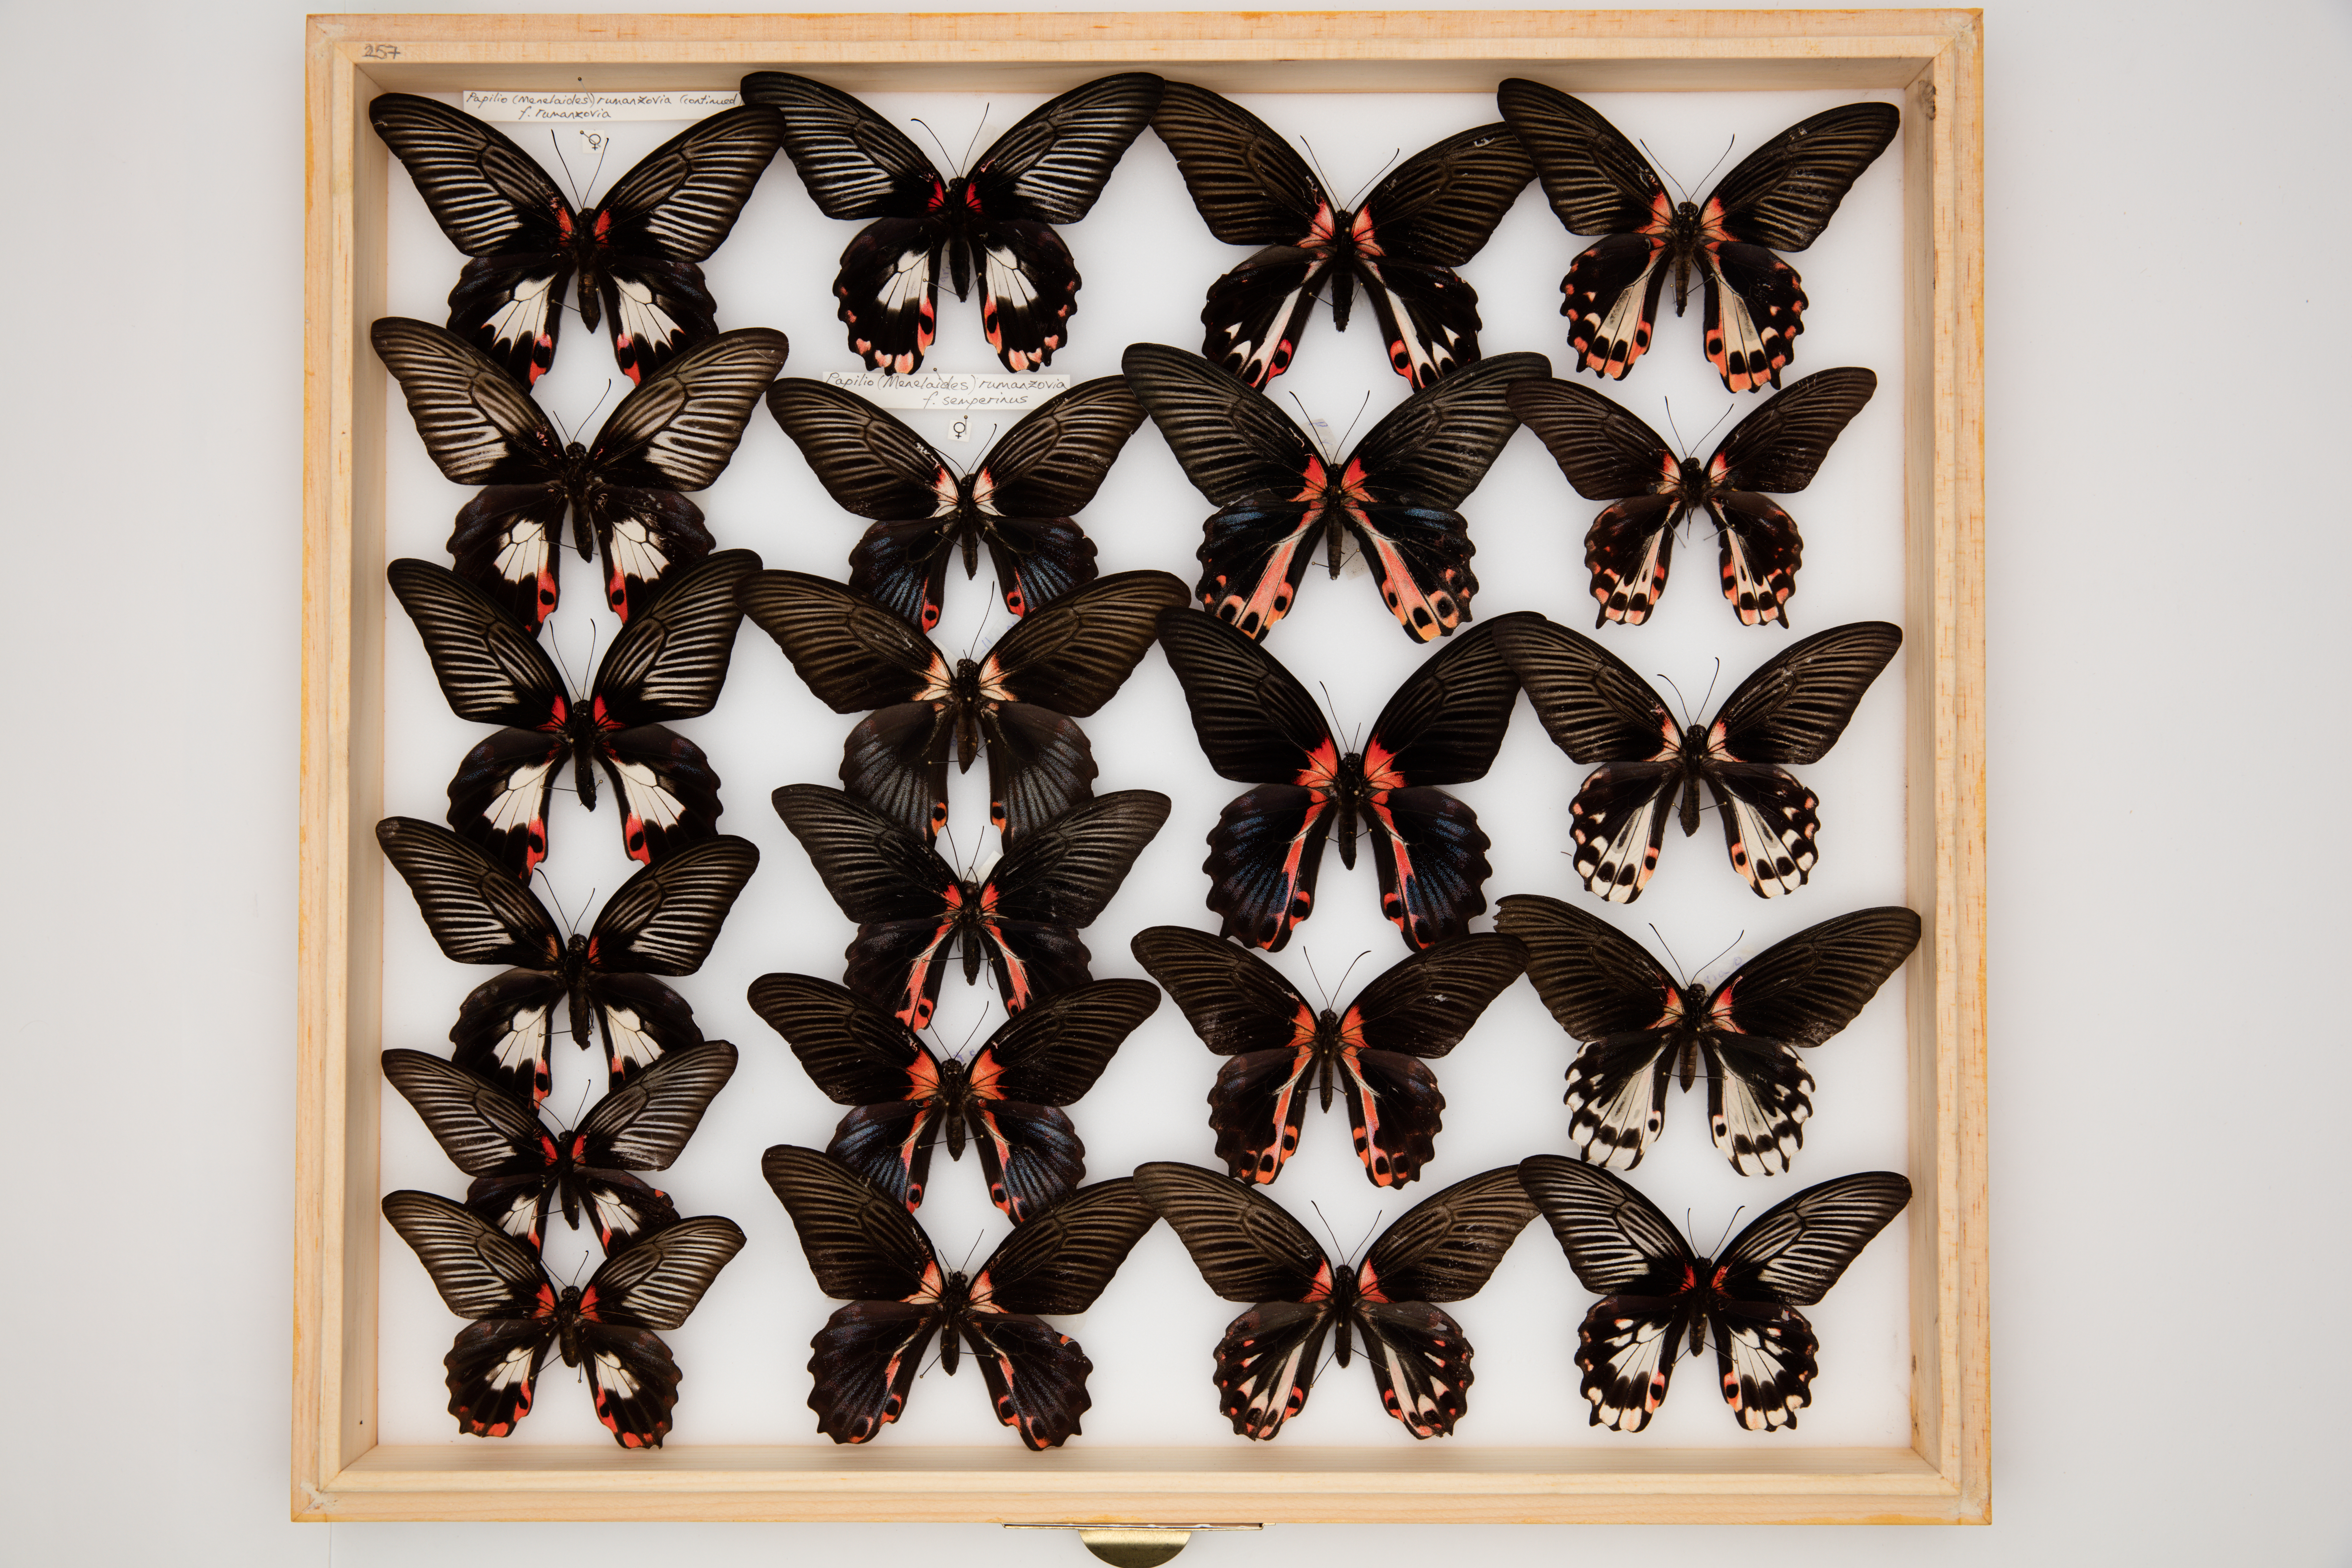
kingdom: Animalia
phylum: Arthropoda
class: Insecta
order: Lepidoptera
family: Papilionidae
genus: Papilio
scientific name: Papilio rumanzovia
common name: Scarlet mormon swallowtail
